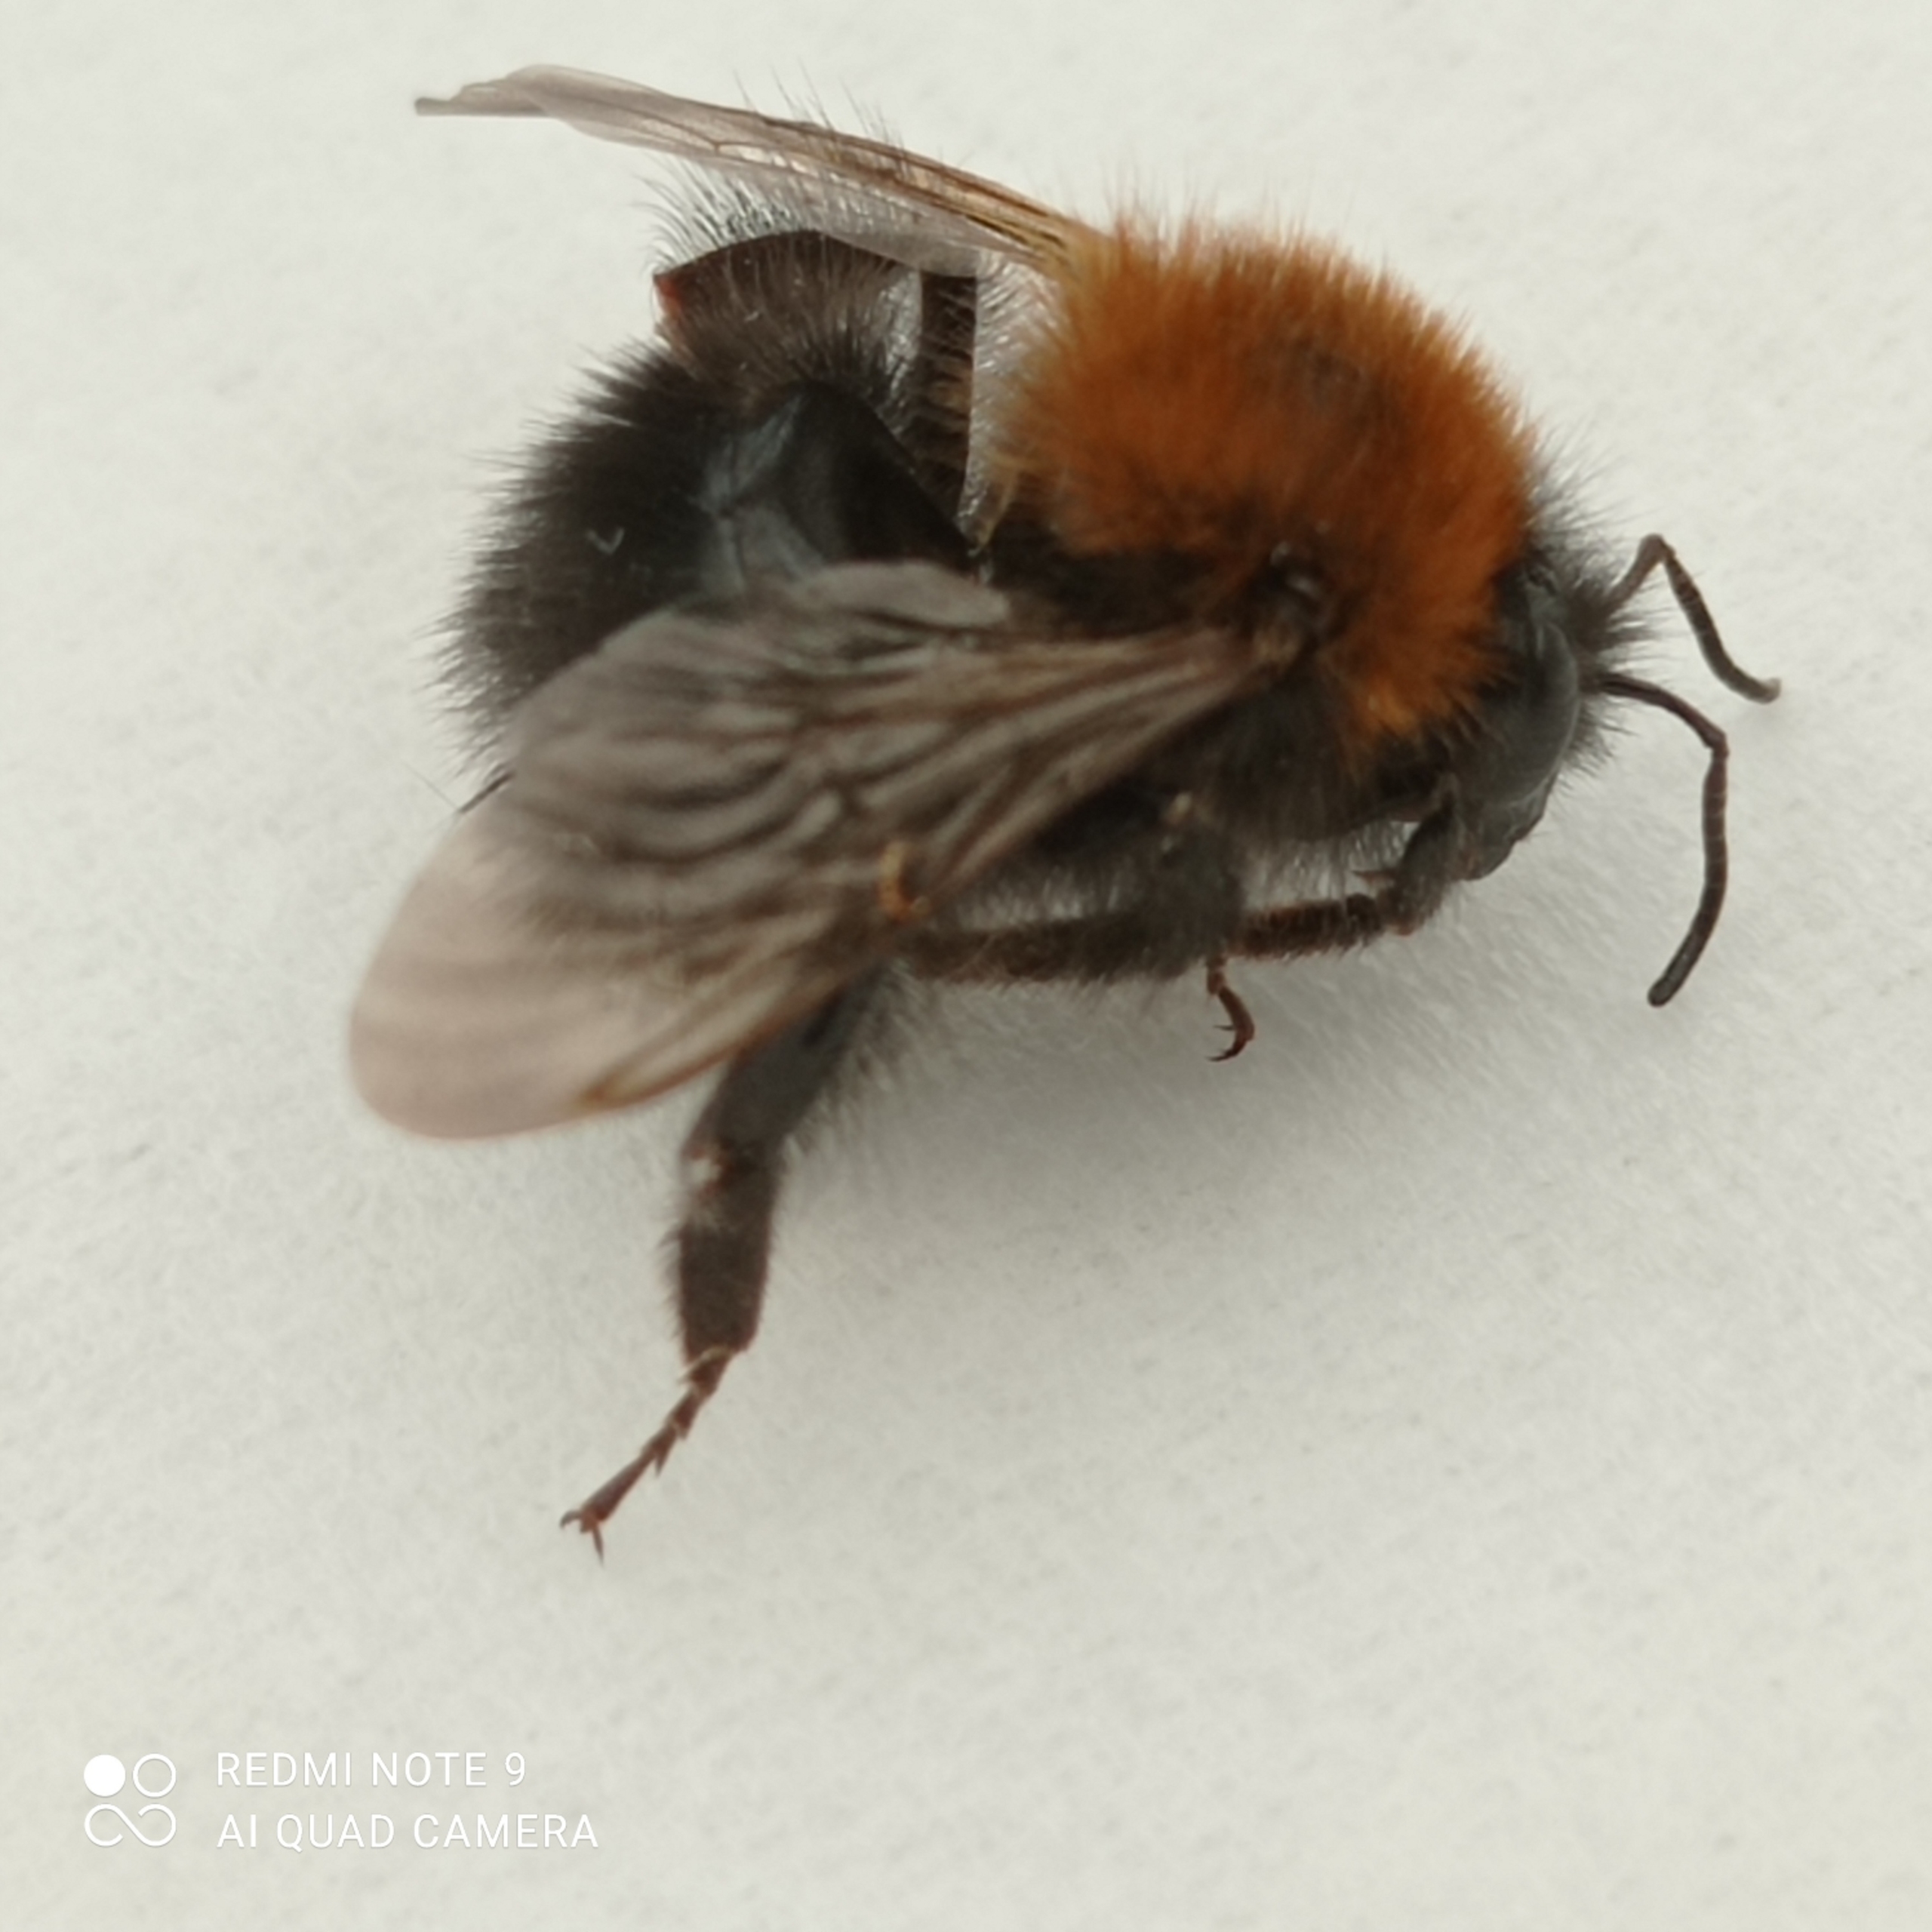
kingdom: Animalia
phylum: Arthropoda
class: Insecta
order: Hymenoptera
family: Apidae
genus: Bombus
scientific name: Bombus hypnorum
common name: Hushumle
